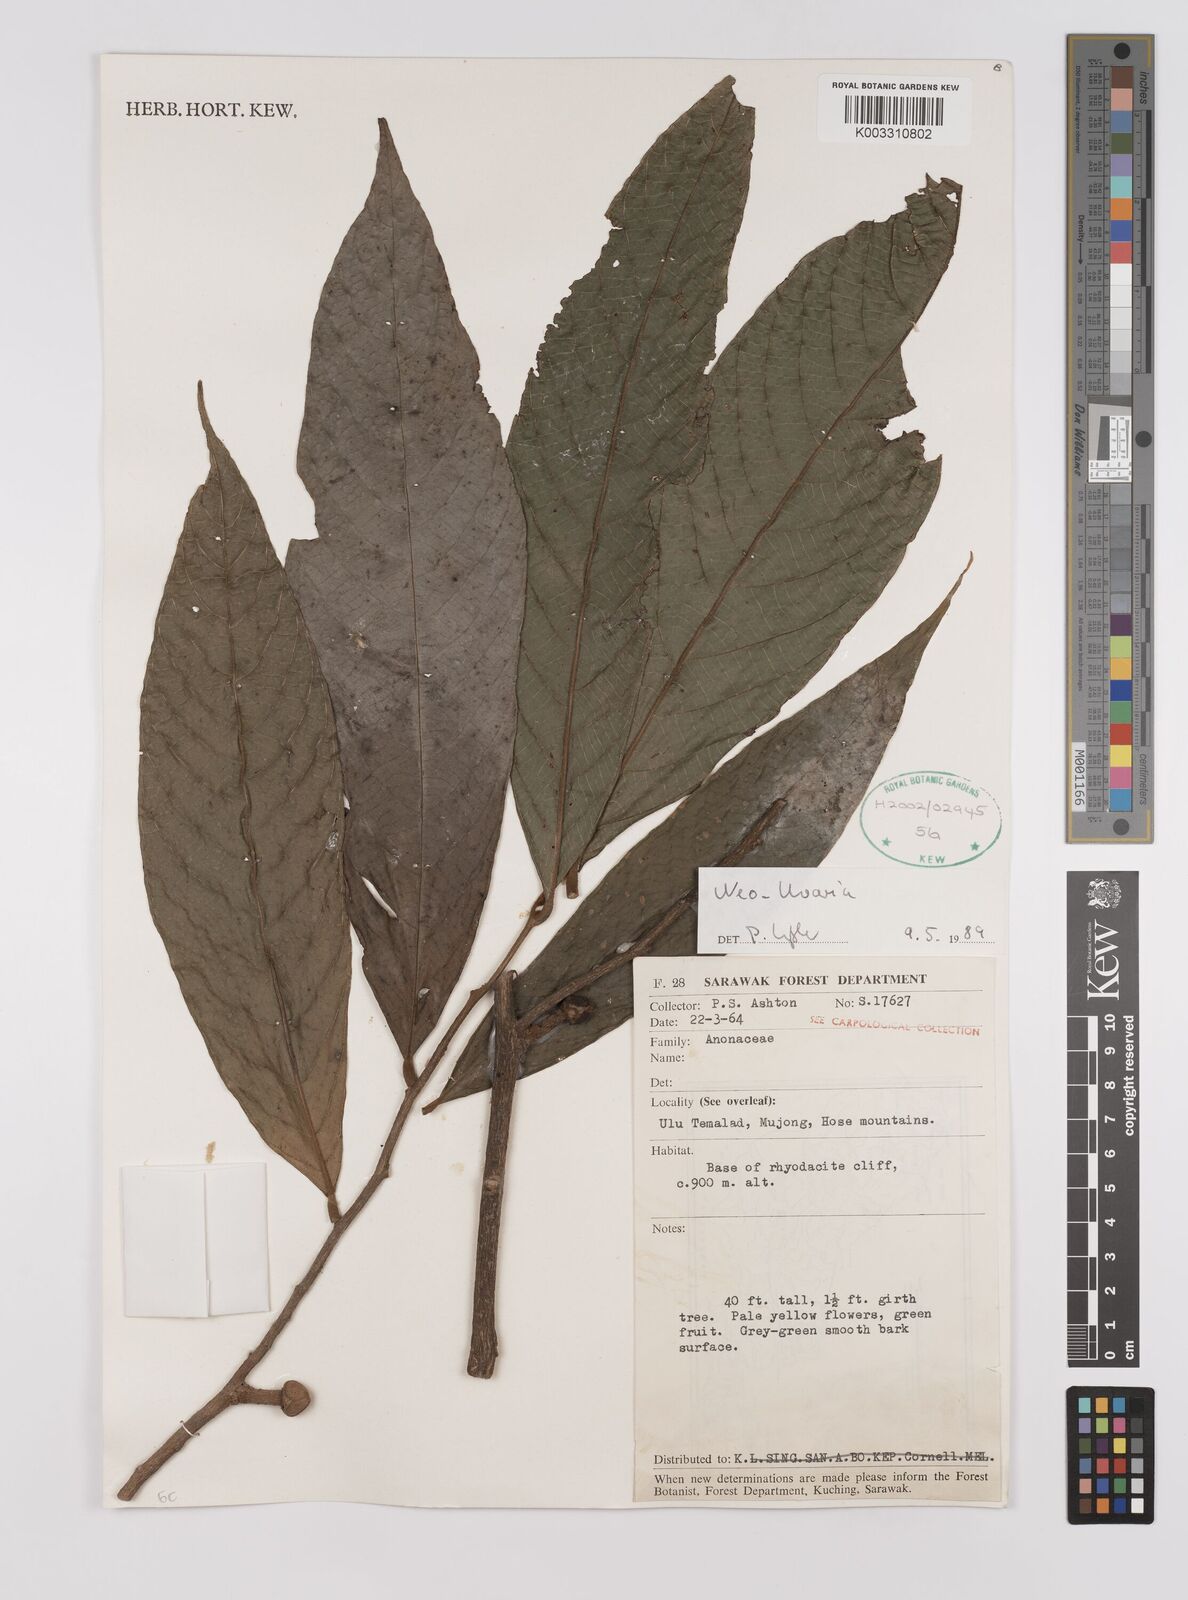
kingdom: Plantae
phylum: Tracheophyta
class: Magnoliopsida
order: Magnoliales
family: Annonaceae
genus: Neo-uvaria
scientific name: Neo-uvaria
